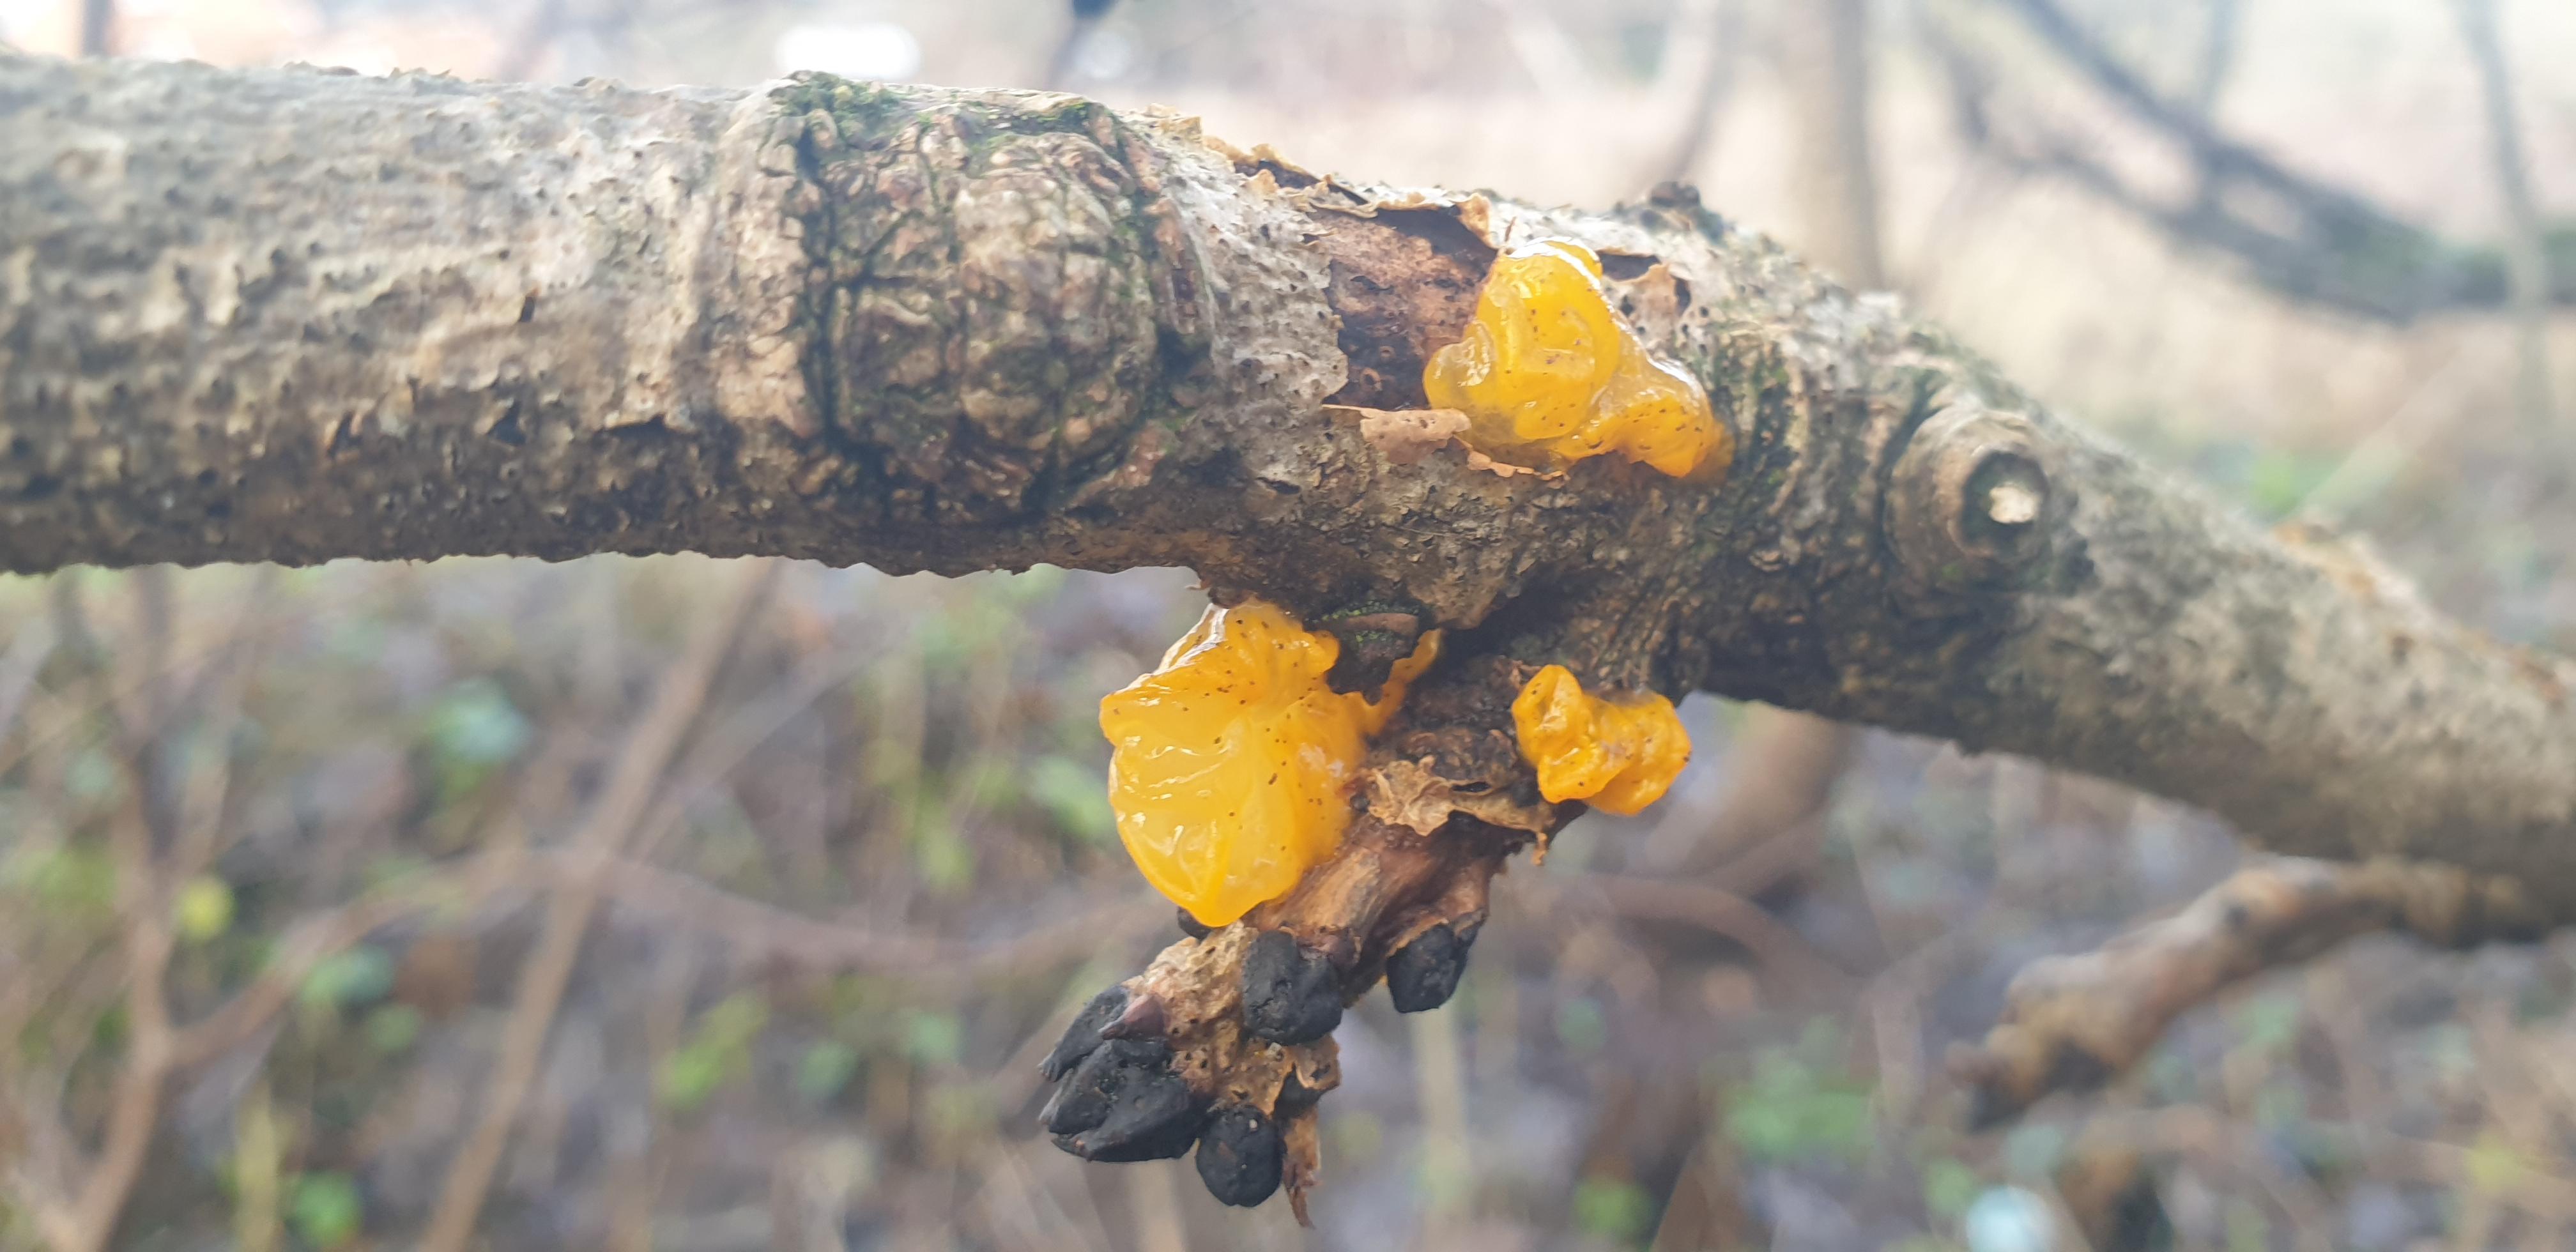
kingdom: Fungi
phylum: Basidiomycota
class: Tremellomycetes
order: Tremellales
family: Tremellaceae
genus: Tremella
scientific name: Tremella mesenterica
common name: gul bævresvamp
